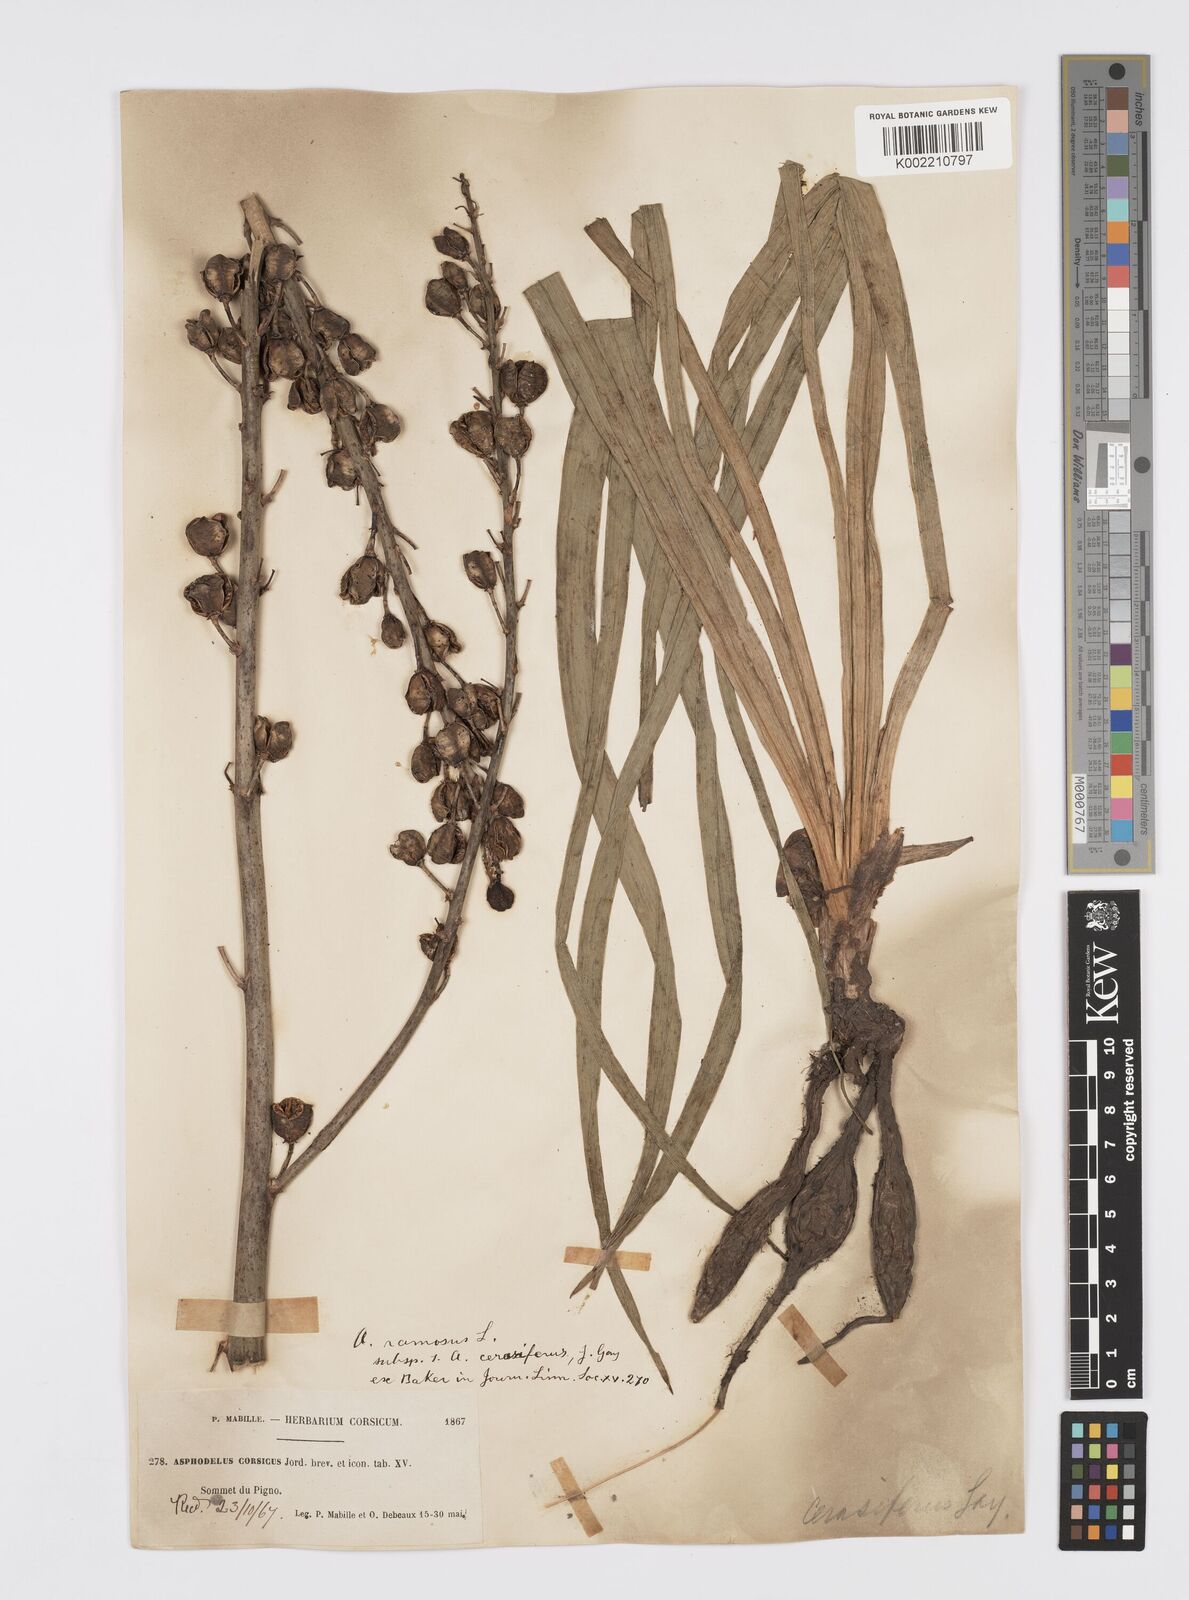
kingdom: Plantae
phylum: Tracheophyta
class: Liliopsida
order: Asparagales
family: Asphodelaceae
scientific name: Asphodelaceae
